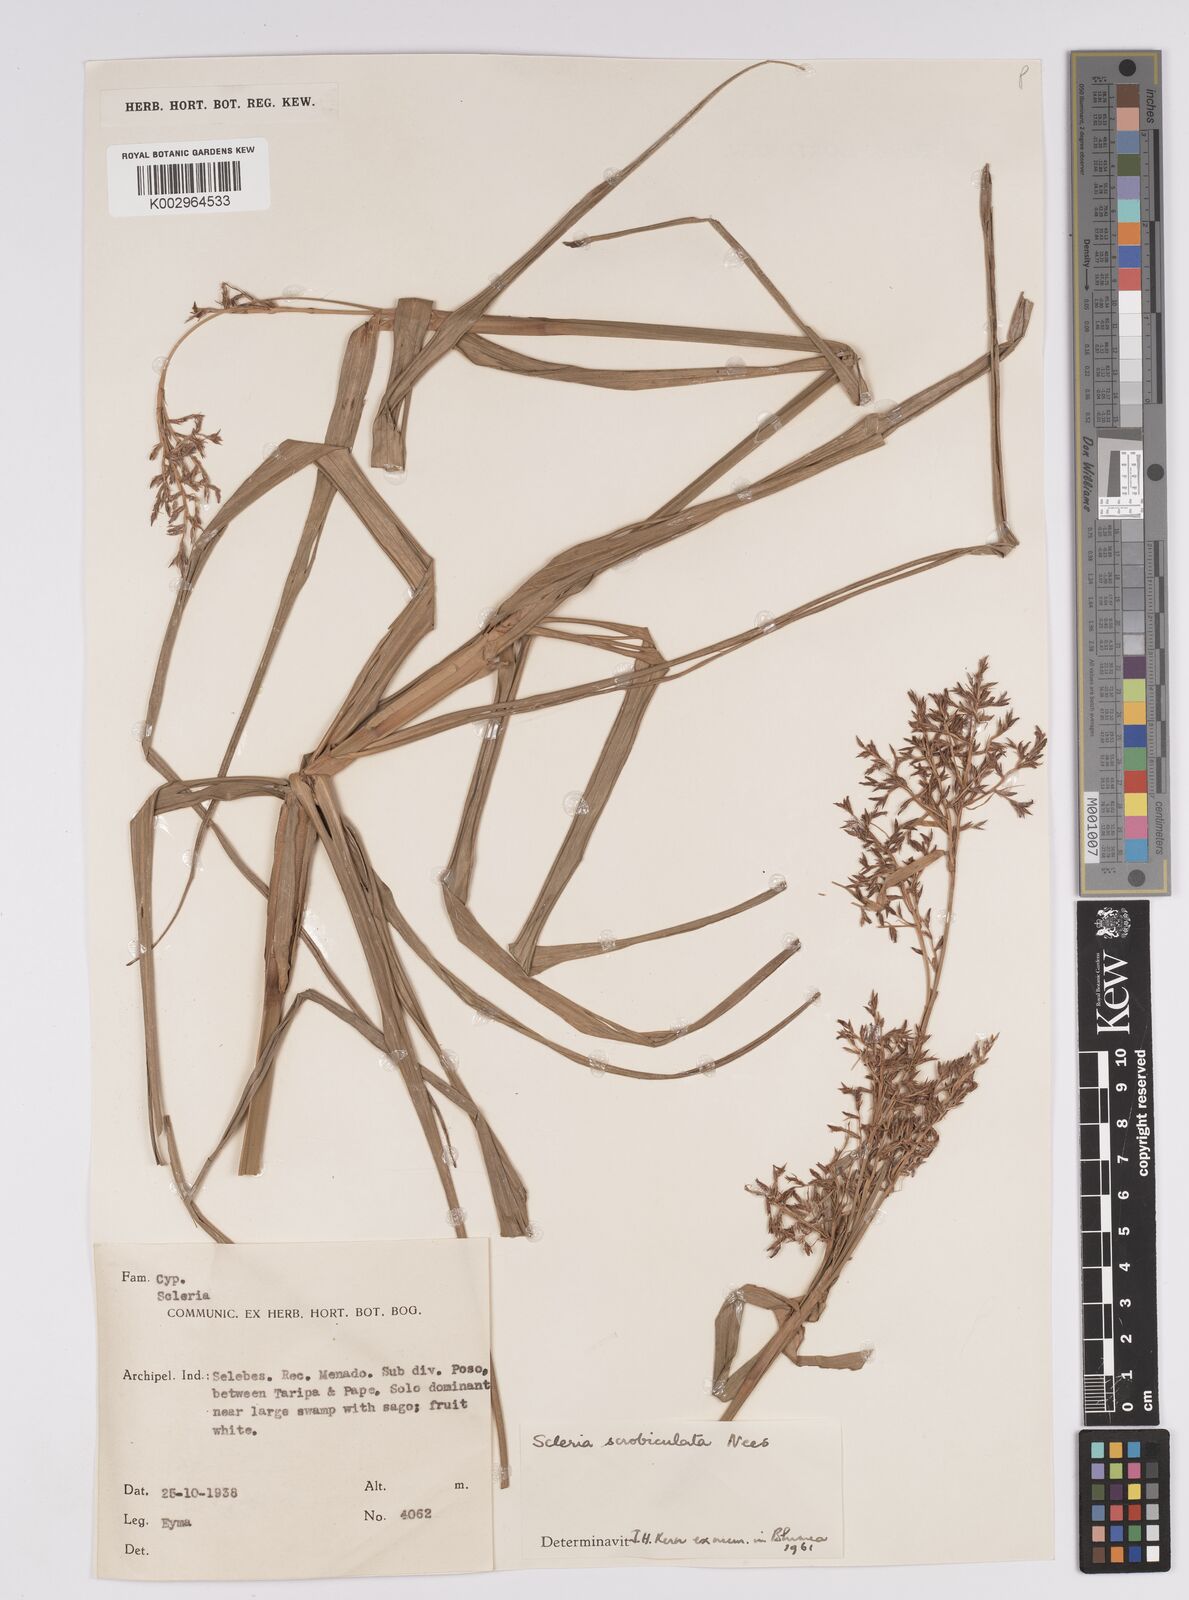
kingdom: Plantae
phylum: Tracheophyta
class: Liliopsida
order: Poales
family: Cyperaceae
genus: Scleria
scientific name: Scleria scrobiculata
